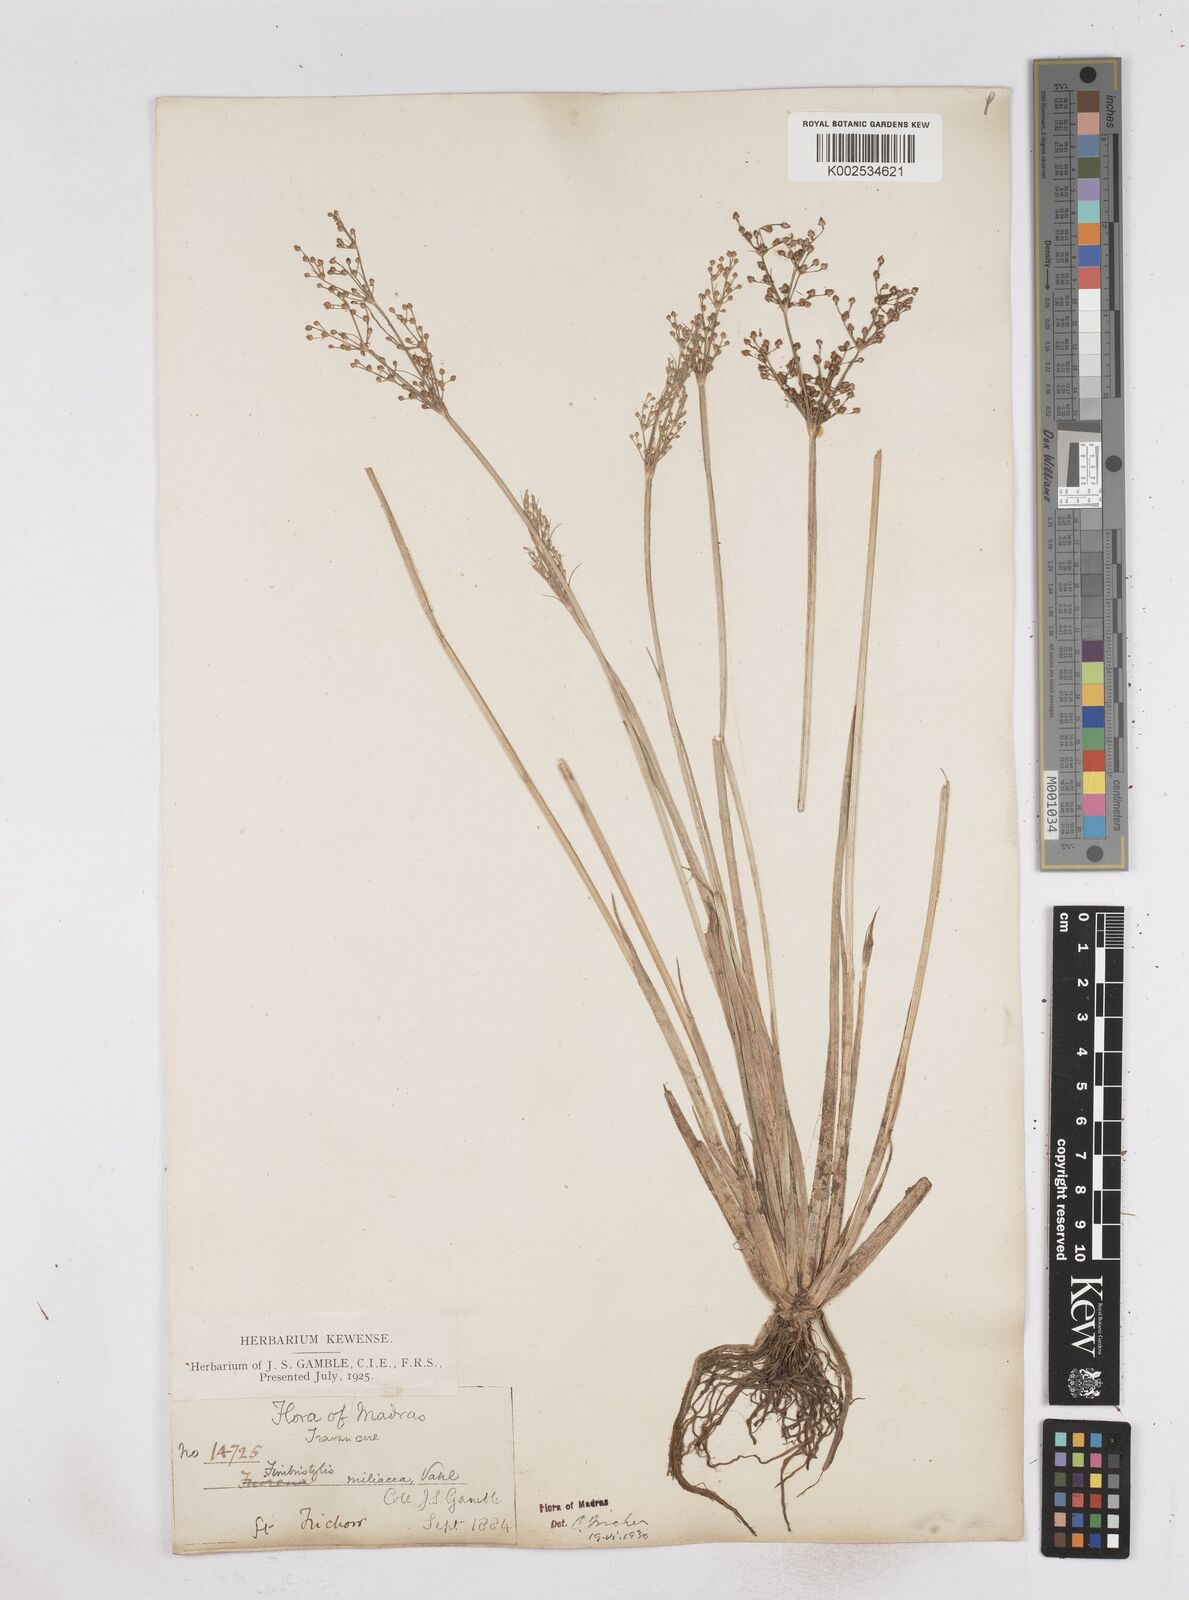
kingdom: Plantae
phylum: Tracheophyta
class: Liliopsida
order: Poales
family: Cyperaceae
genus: Fimbristylis
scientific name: Fimbristylis littoralis
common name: Fimbry
